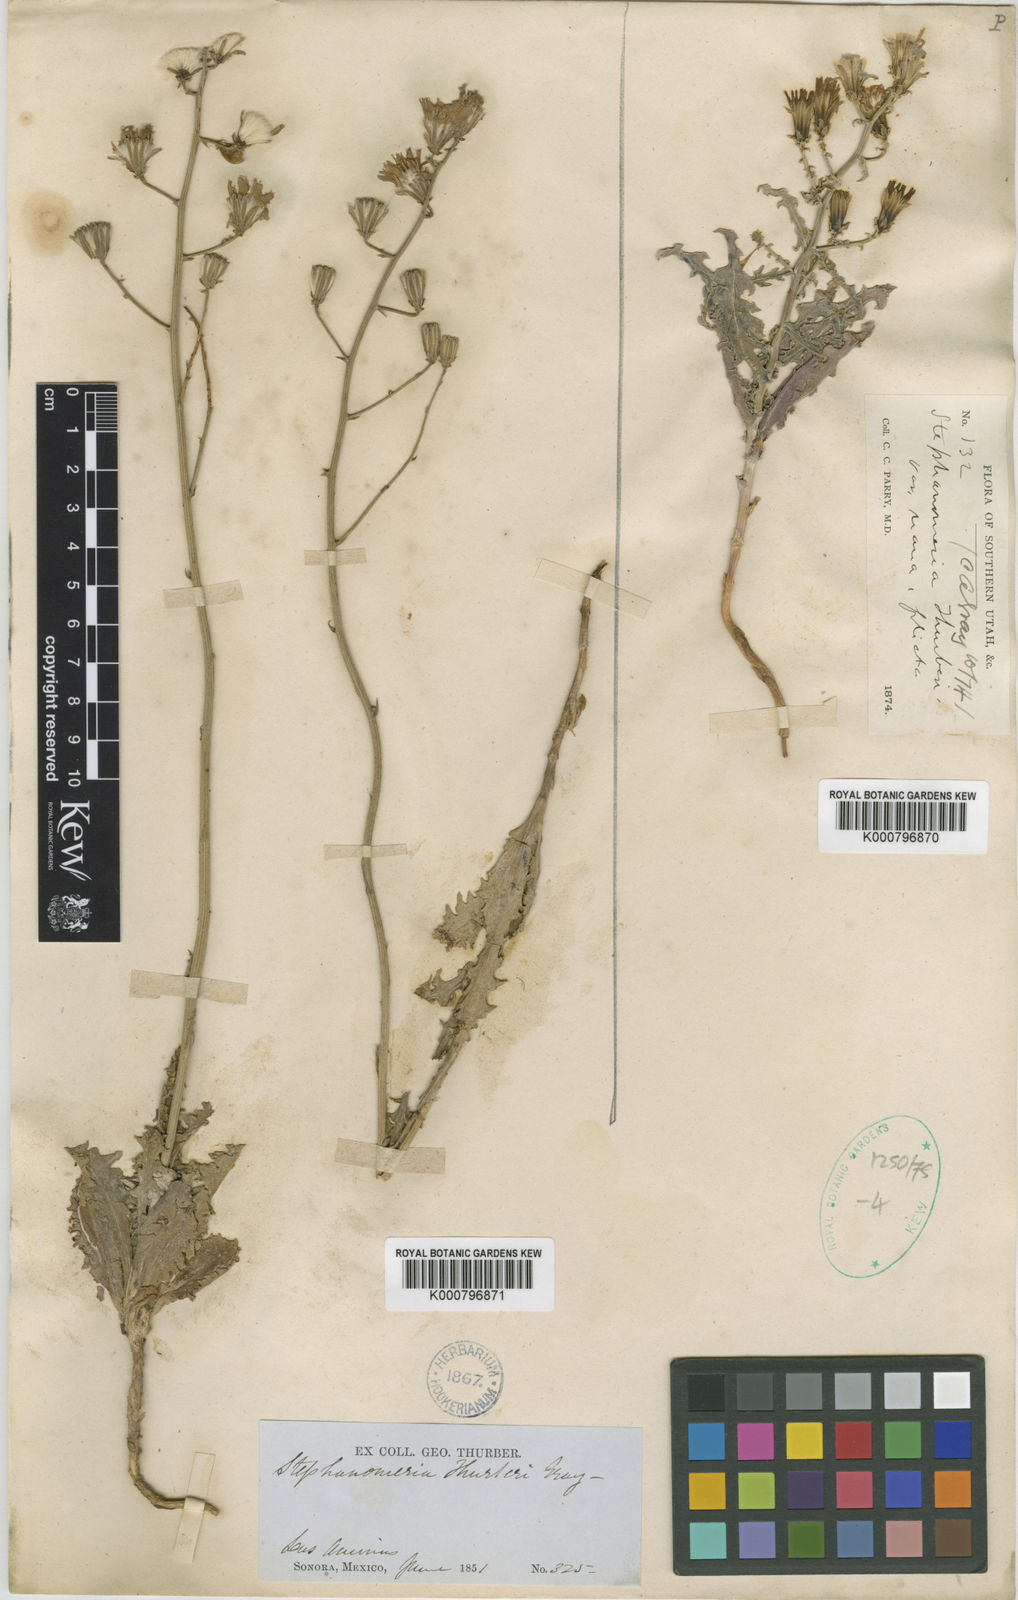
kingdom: Plantae
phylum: Tracheophyta
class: Magnoliopsida
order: Asterales
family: Asteraceae
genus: Stephanomeria
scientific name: Stephanomeria
